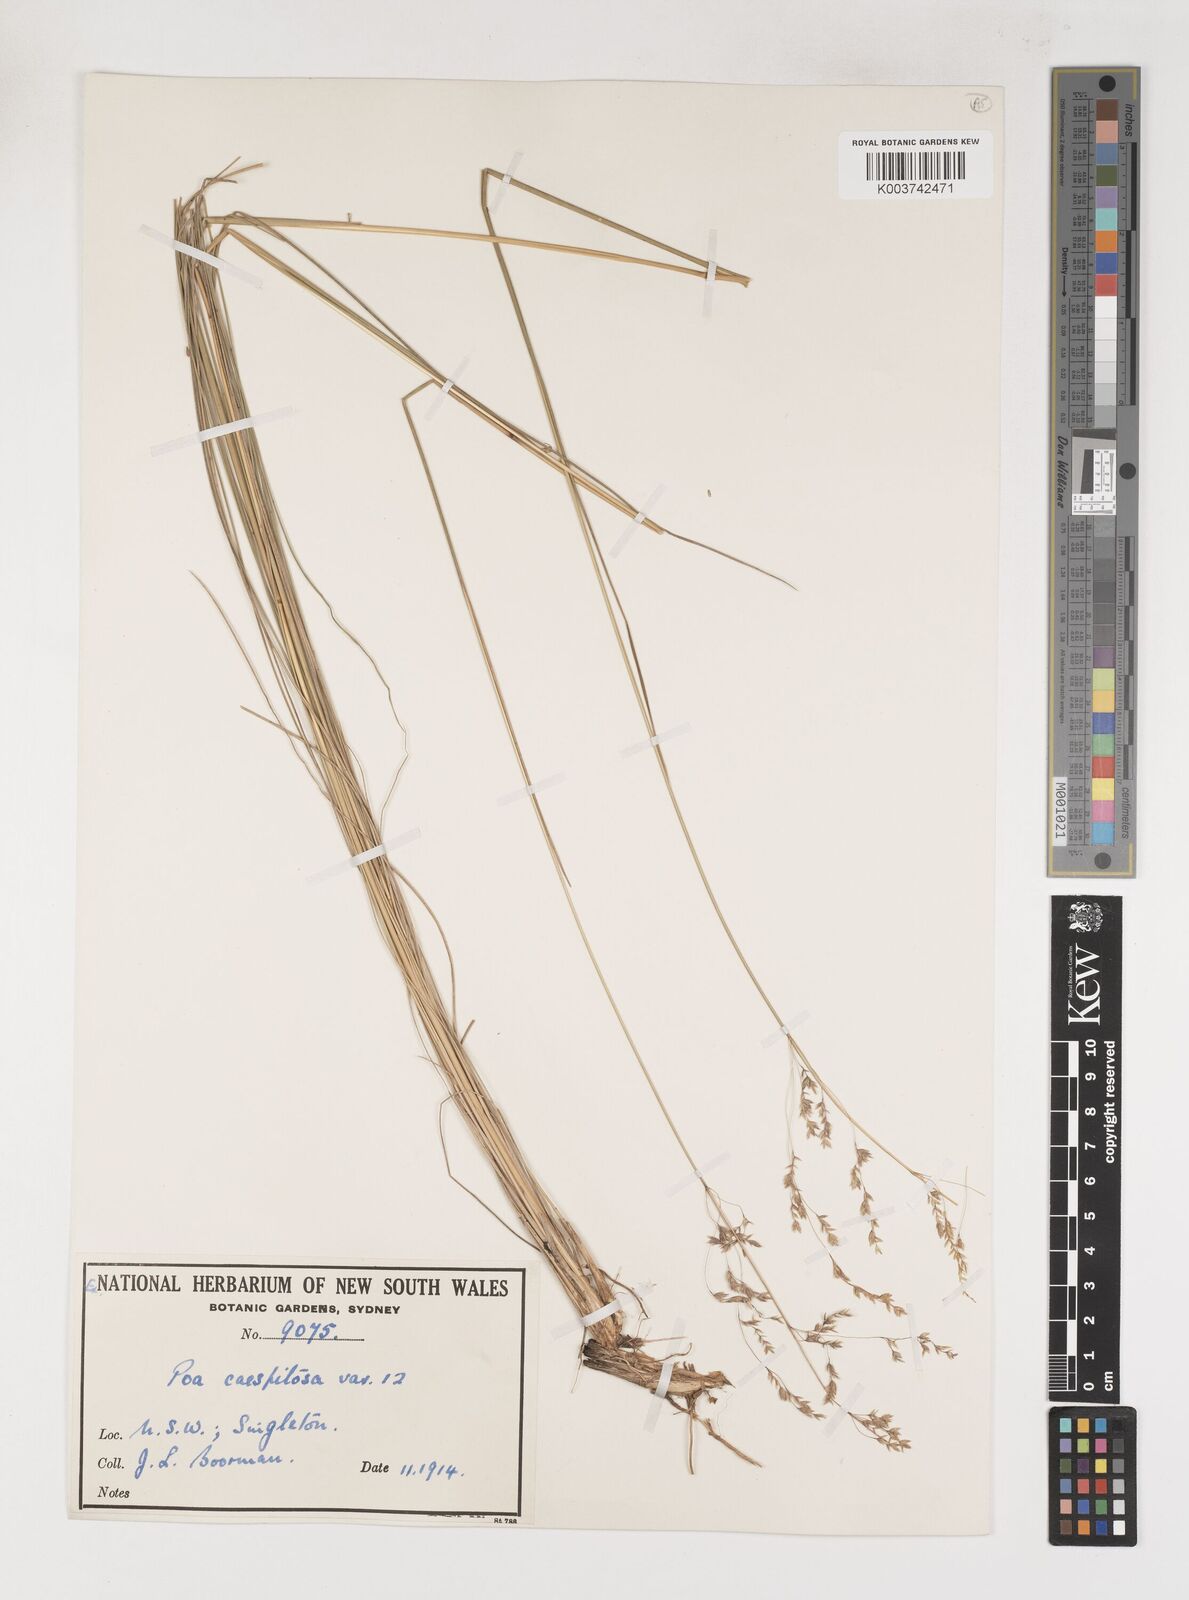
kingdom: Plantae
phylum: Tracheophyta
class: Liliopsida
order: Poales
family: Poaceae
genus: Poa
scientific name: Poa
